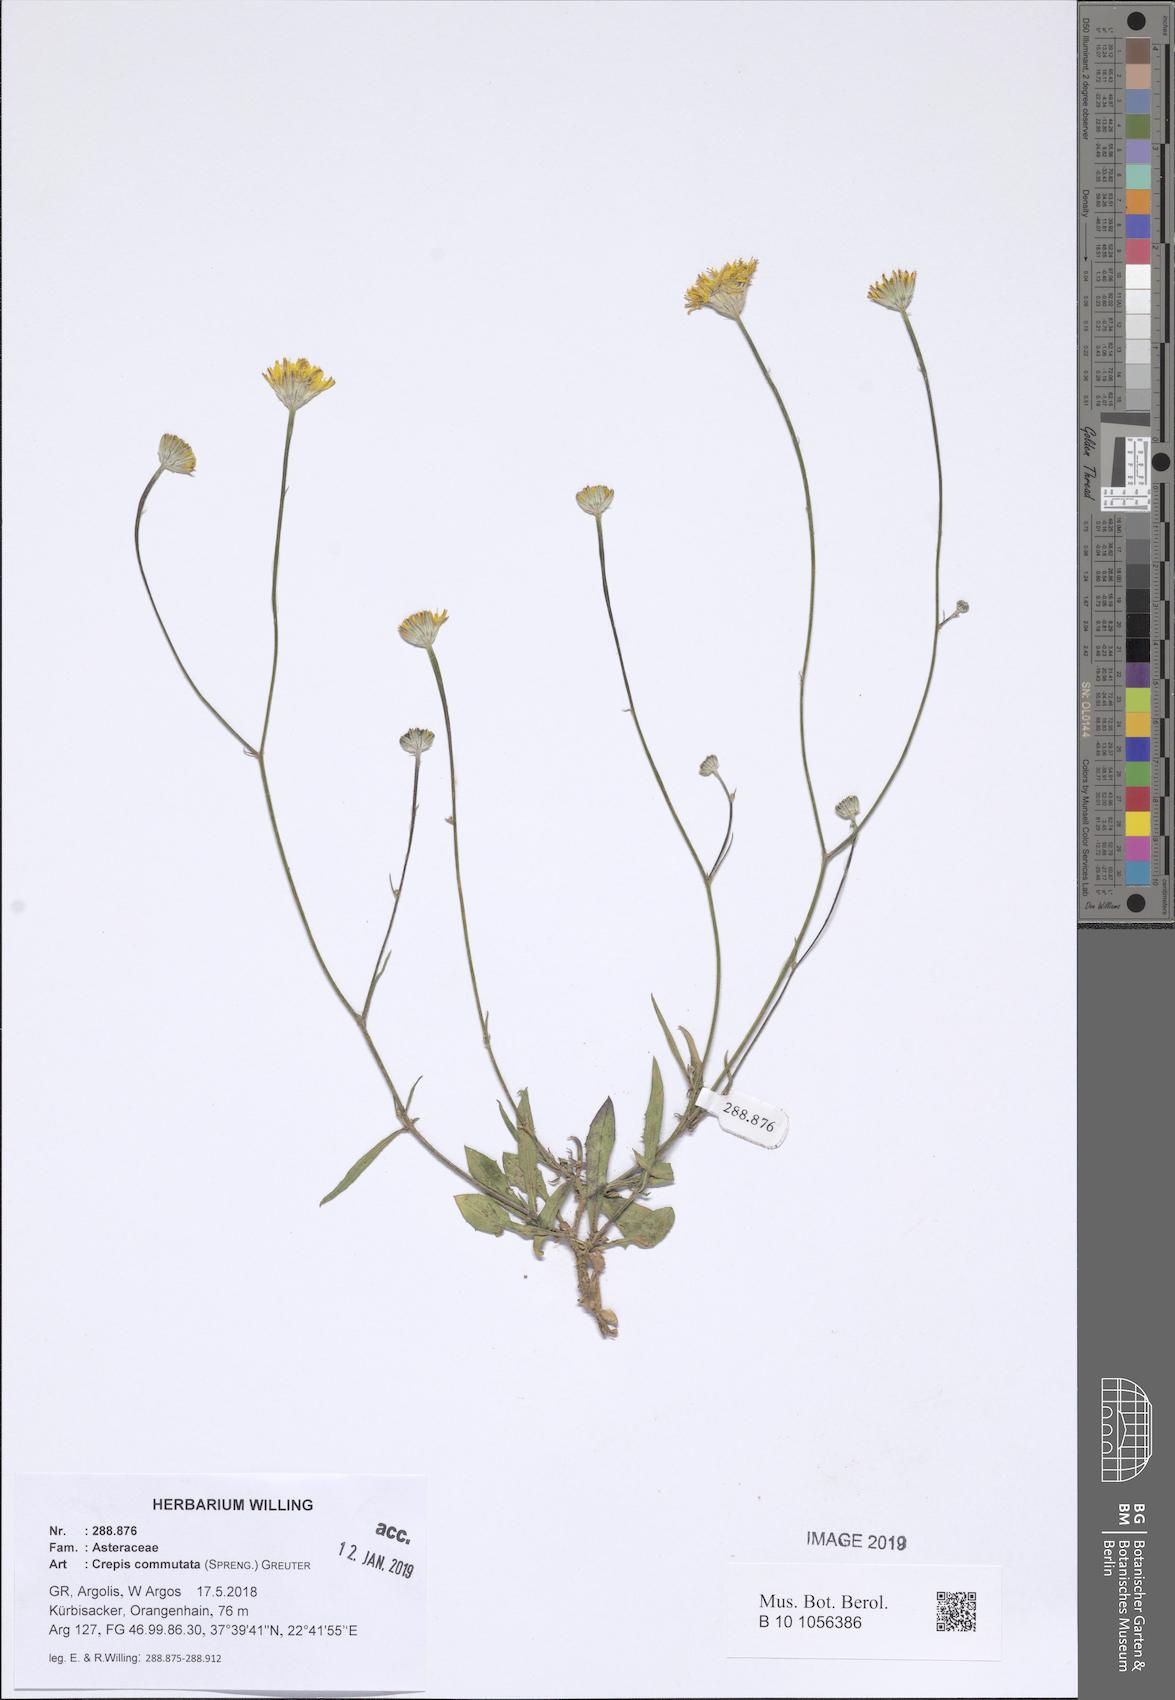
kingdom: Plantae
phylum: Tracheophyta
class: Magnoliopsida
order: Asterales
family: Asteraceae
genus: Crepis
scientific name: Crepis commutata
